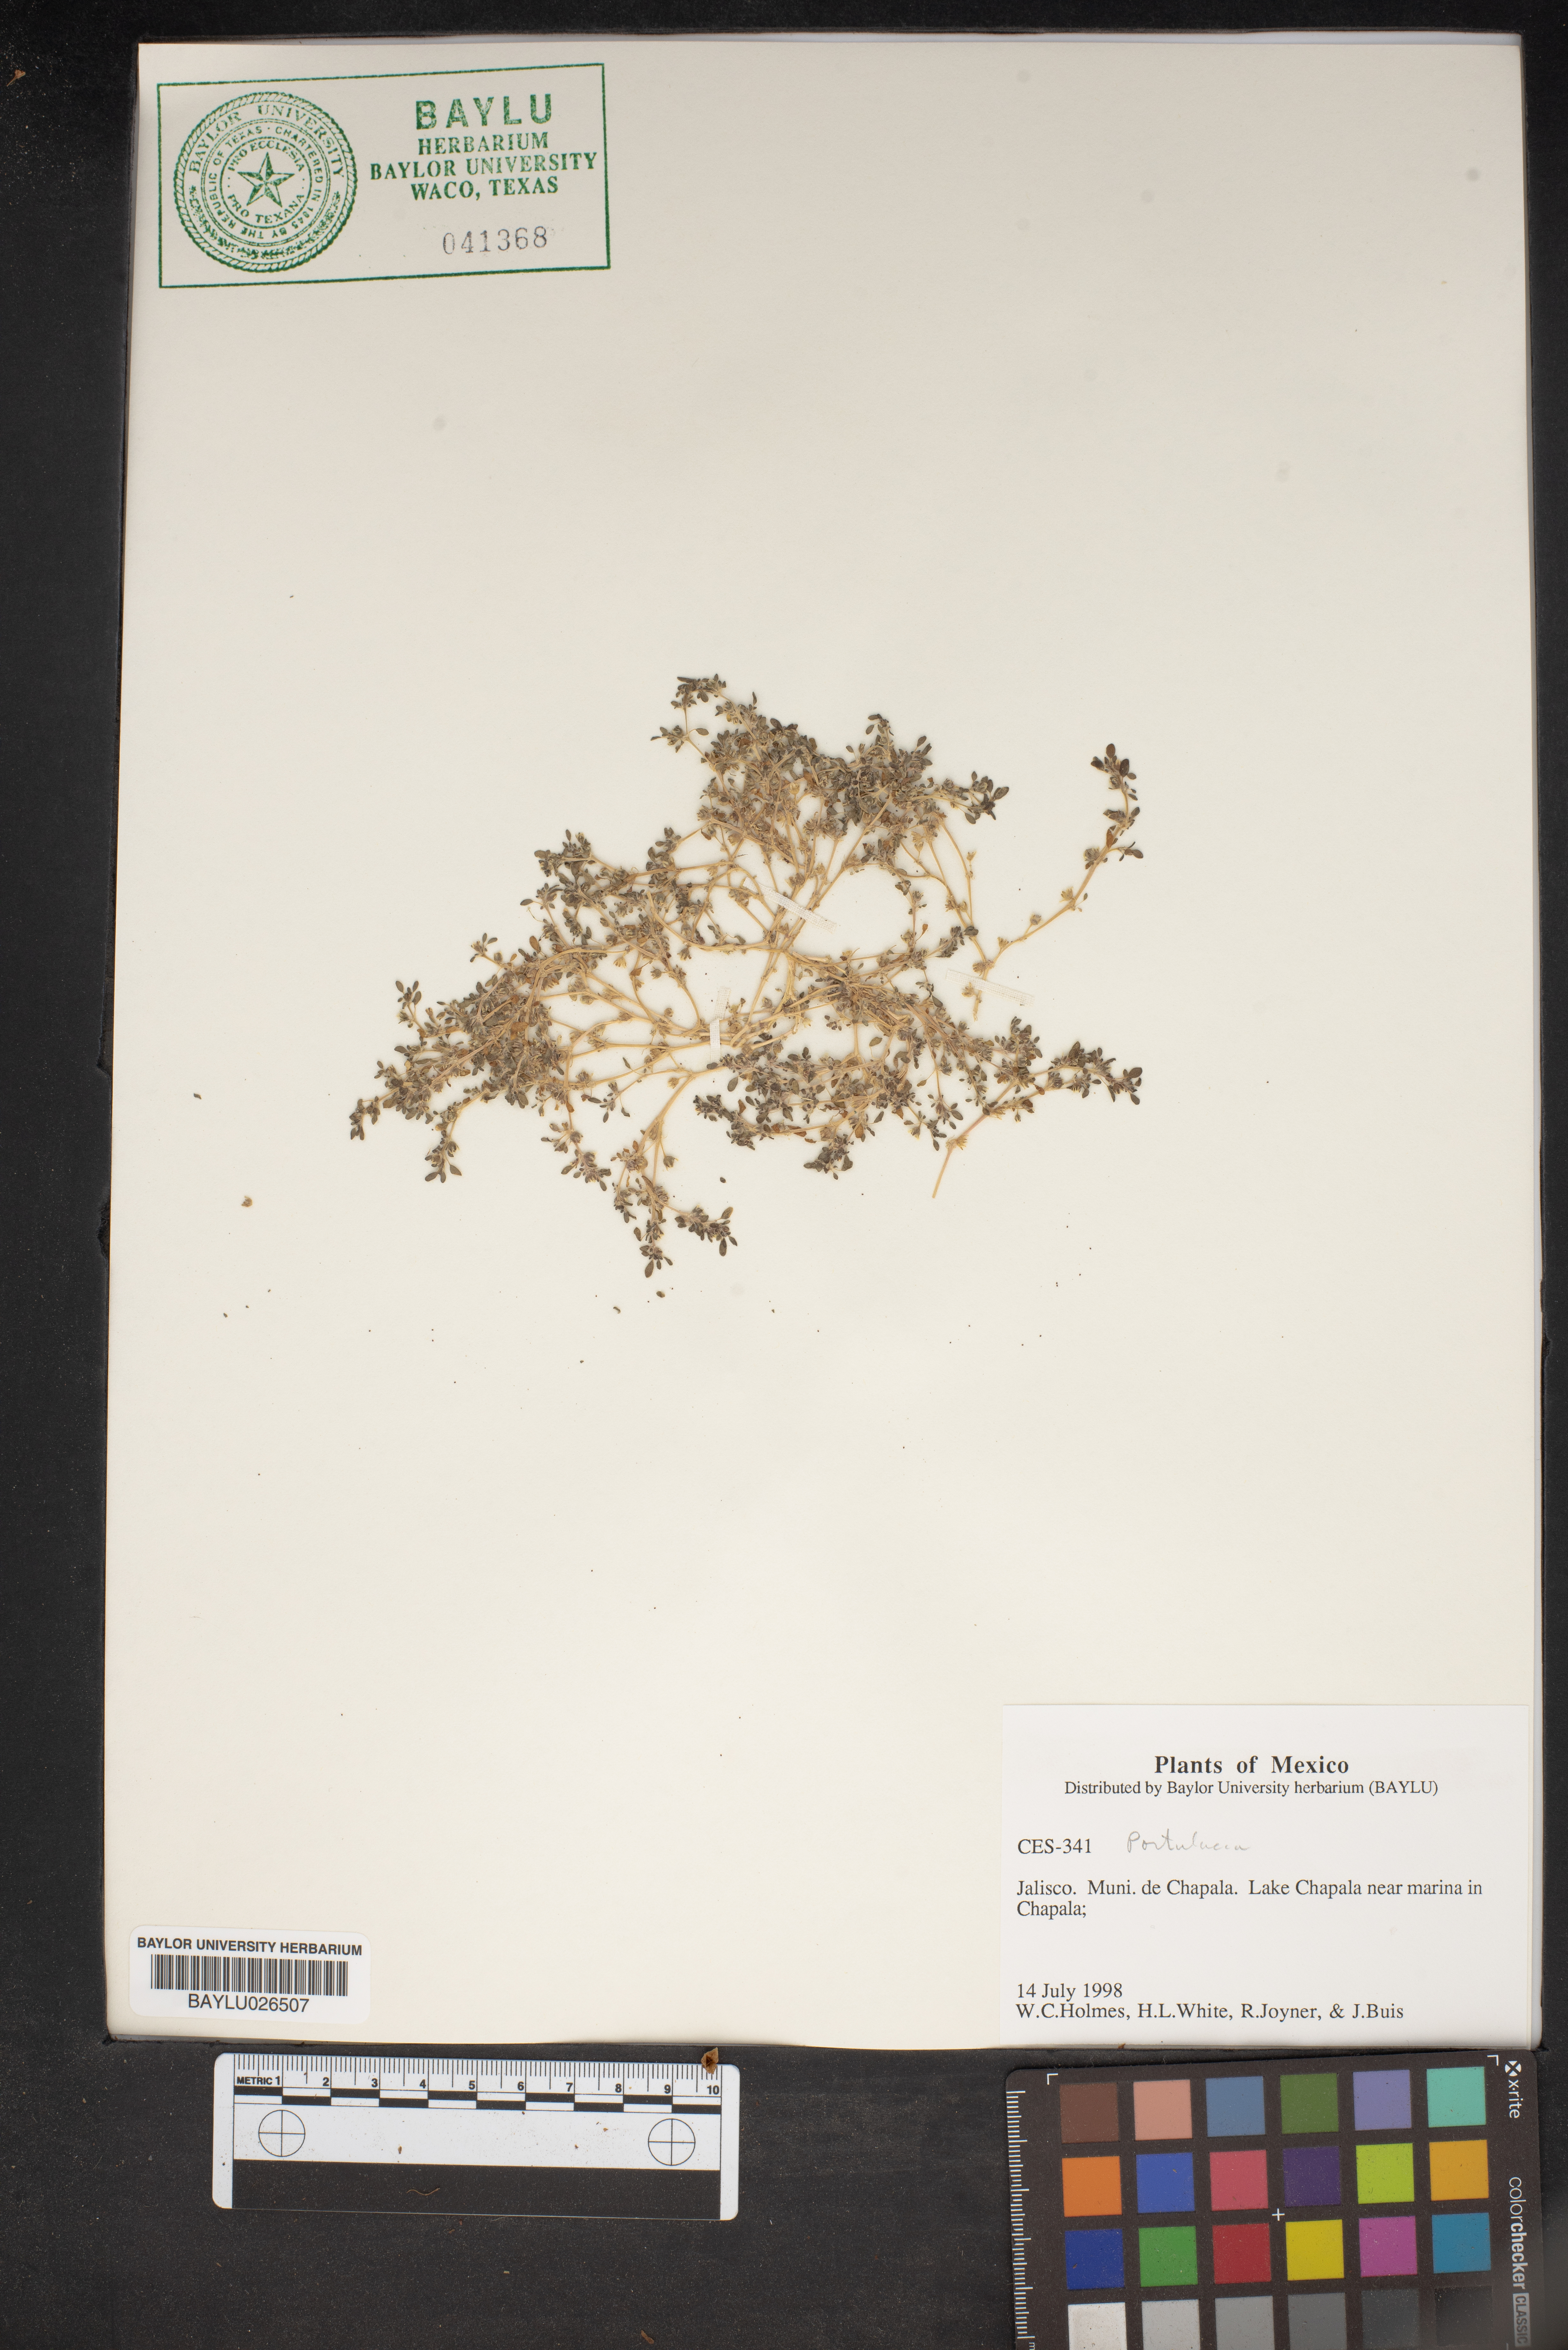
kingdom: Plantae
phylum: Tracheophyta
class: Magnoliopsida
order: Caryophyllales
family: Portulacaceae
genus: Portulaca
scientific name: Portulaca
